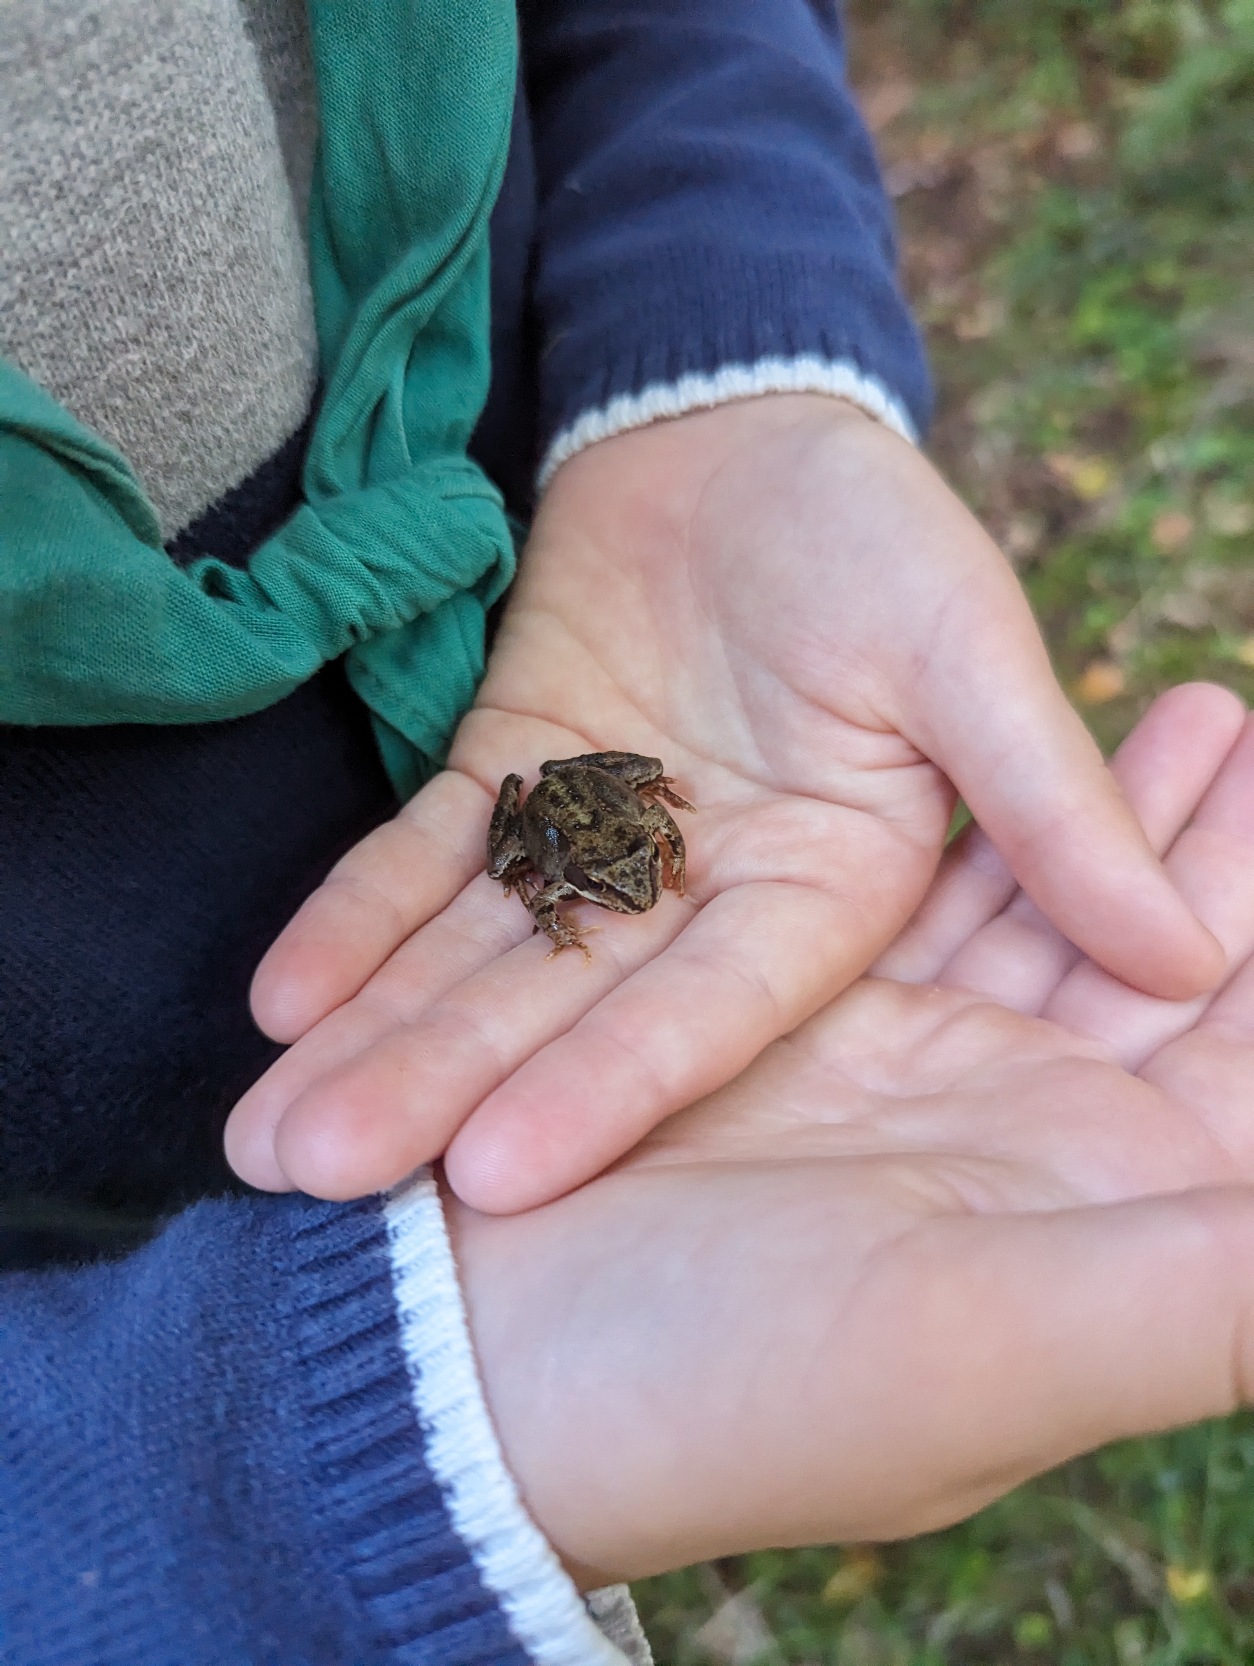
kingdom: Animalia
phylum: Chordata
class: Amphibia
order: Anura
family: Ranidae
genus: Rana
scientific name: Rana temporaria
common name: Butsnudet frø
